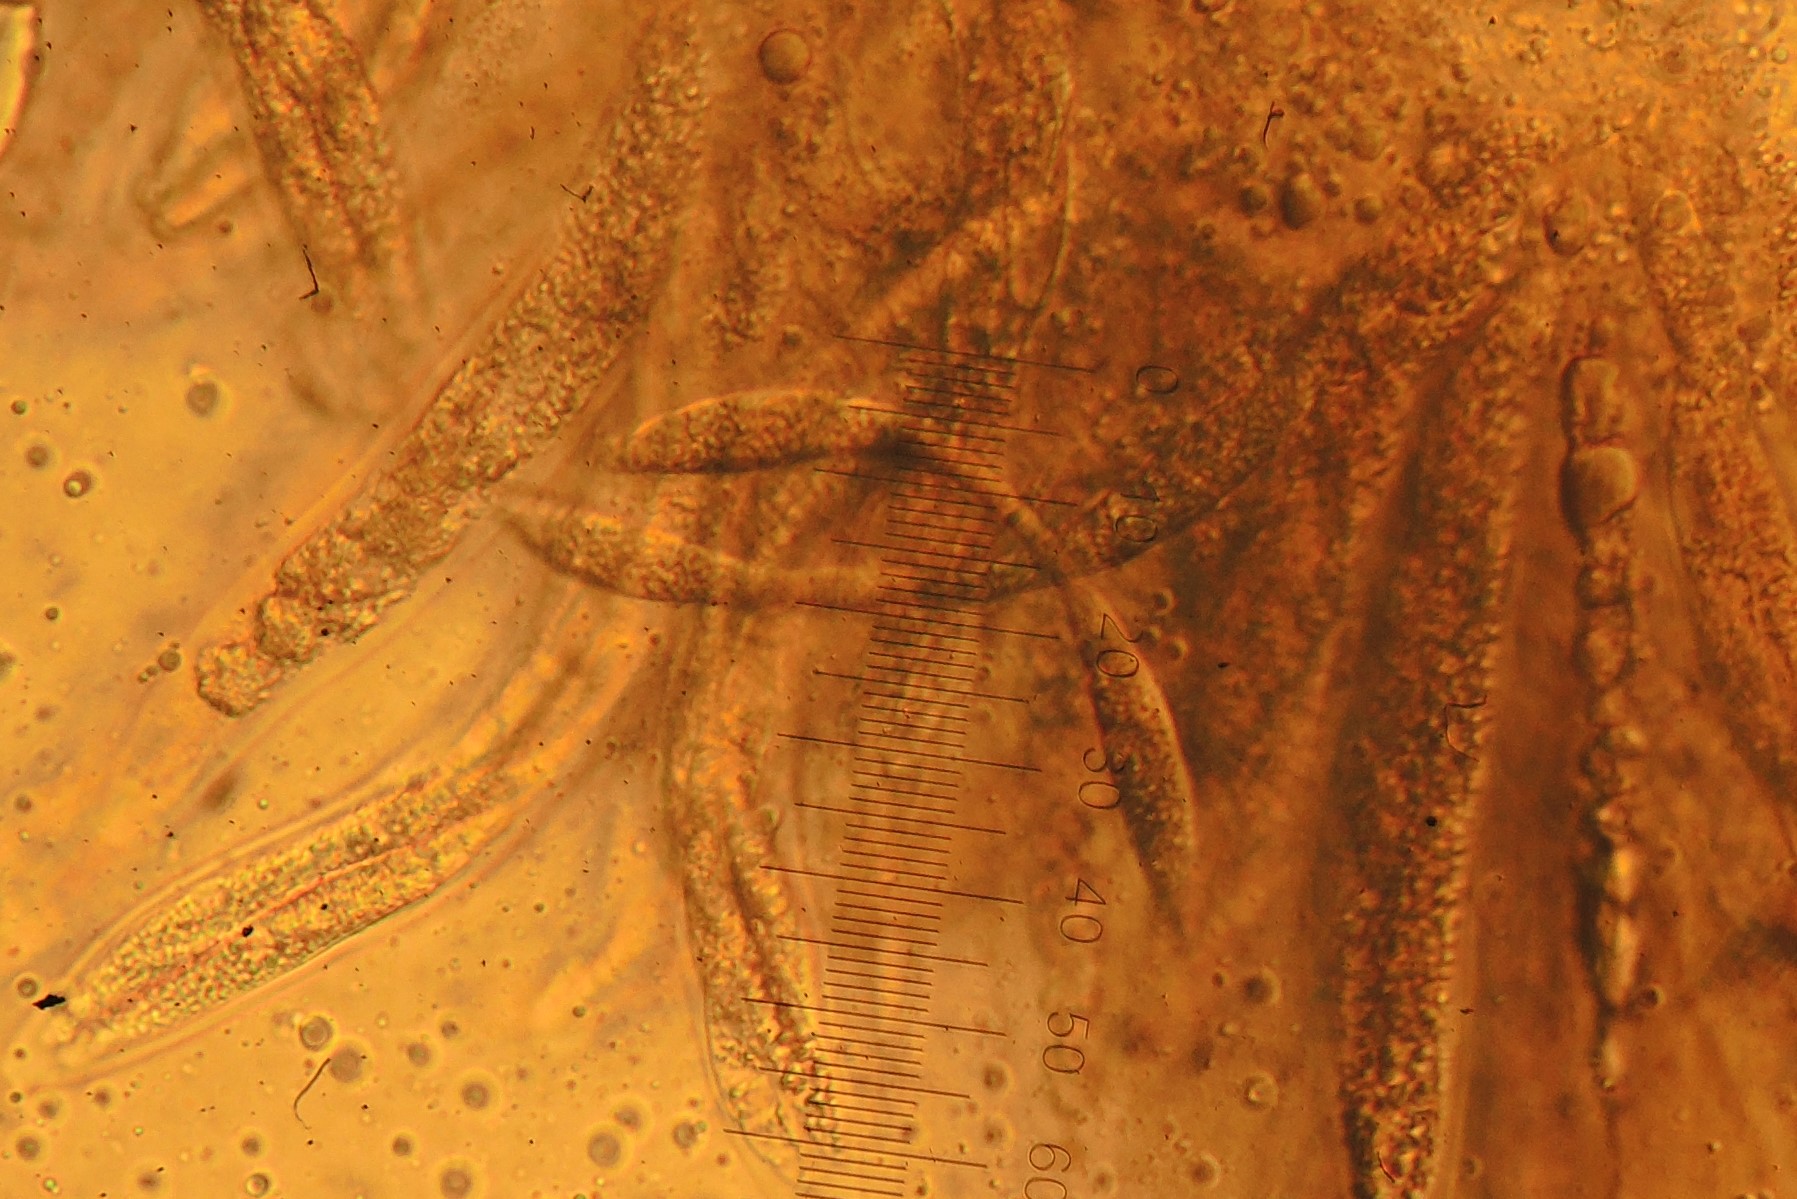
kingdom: Fungi
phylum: Ascomycota
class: Sordariomycetes
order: Xylariales
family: Vialaeaceae
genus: Vialaea
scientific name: Vialaea insculpta
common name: kristtornkerne
